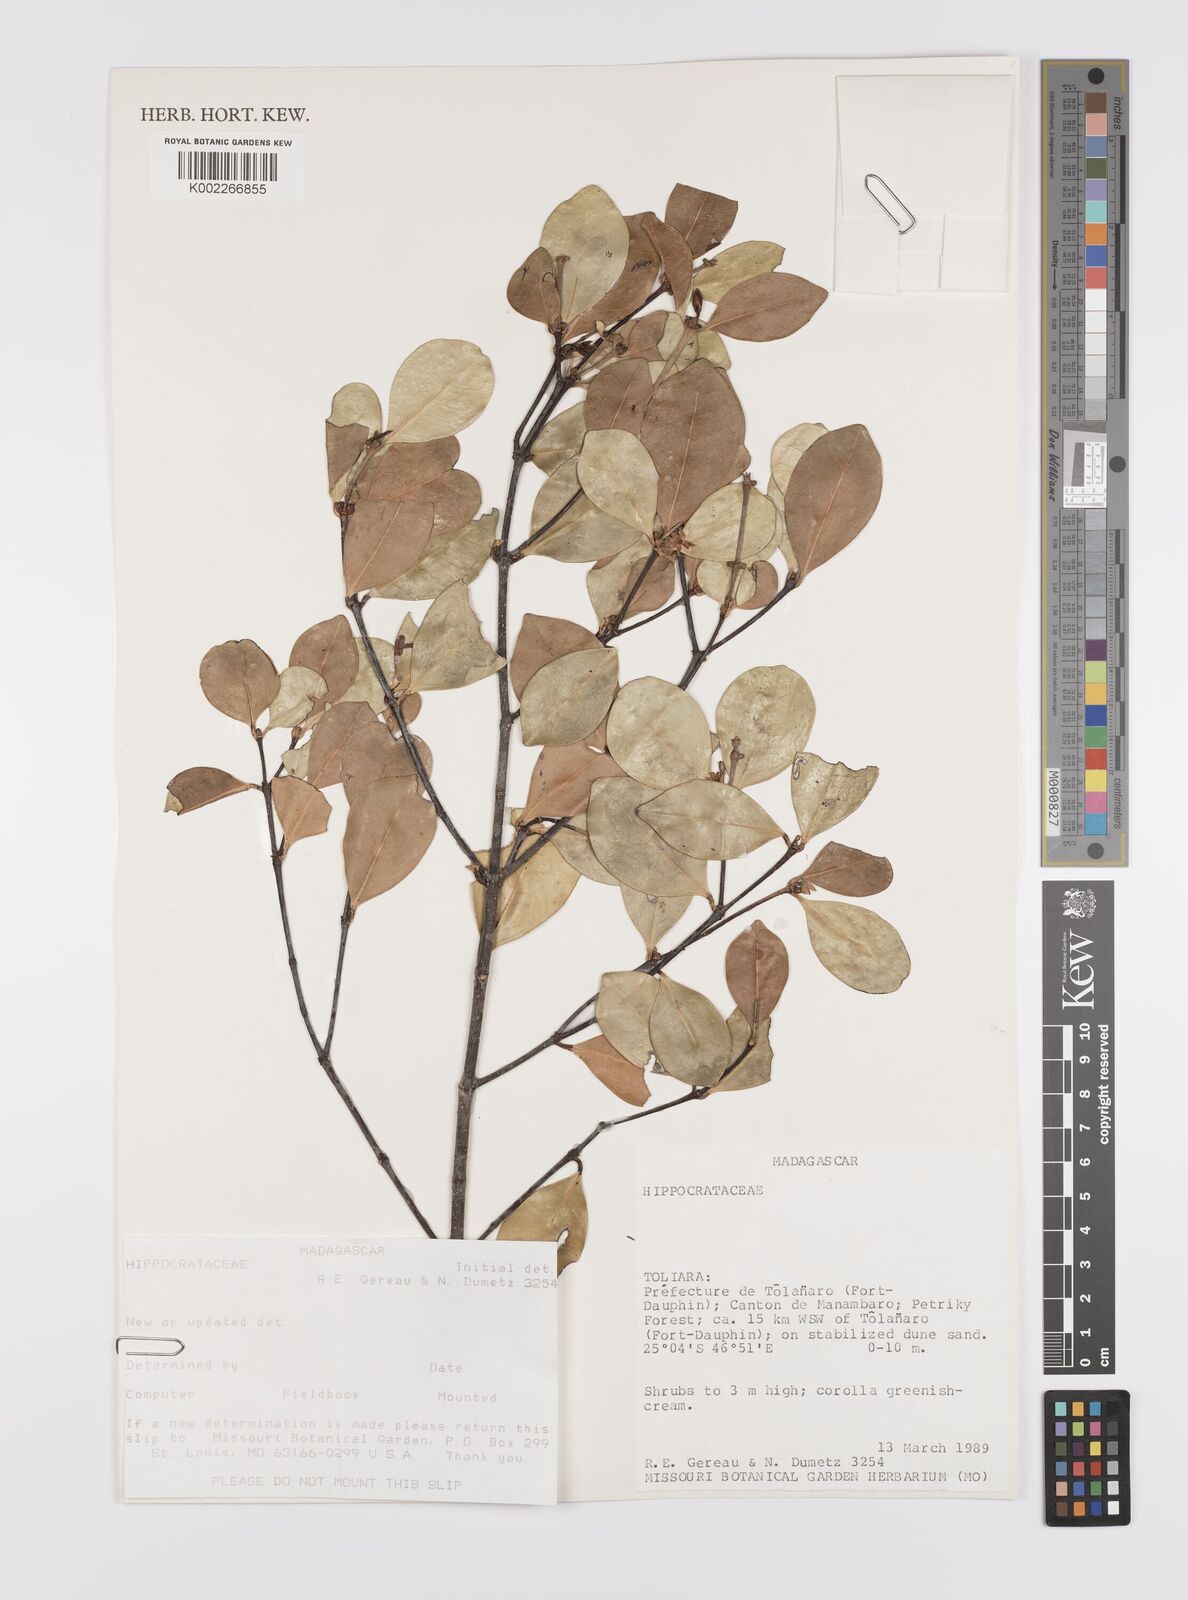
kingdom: Plantae
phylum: Tracheophyta
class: Magnoliopsida
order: Celastrales
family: Celastraceae
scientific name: Celastraceae
